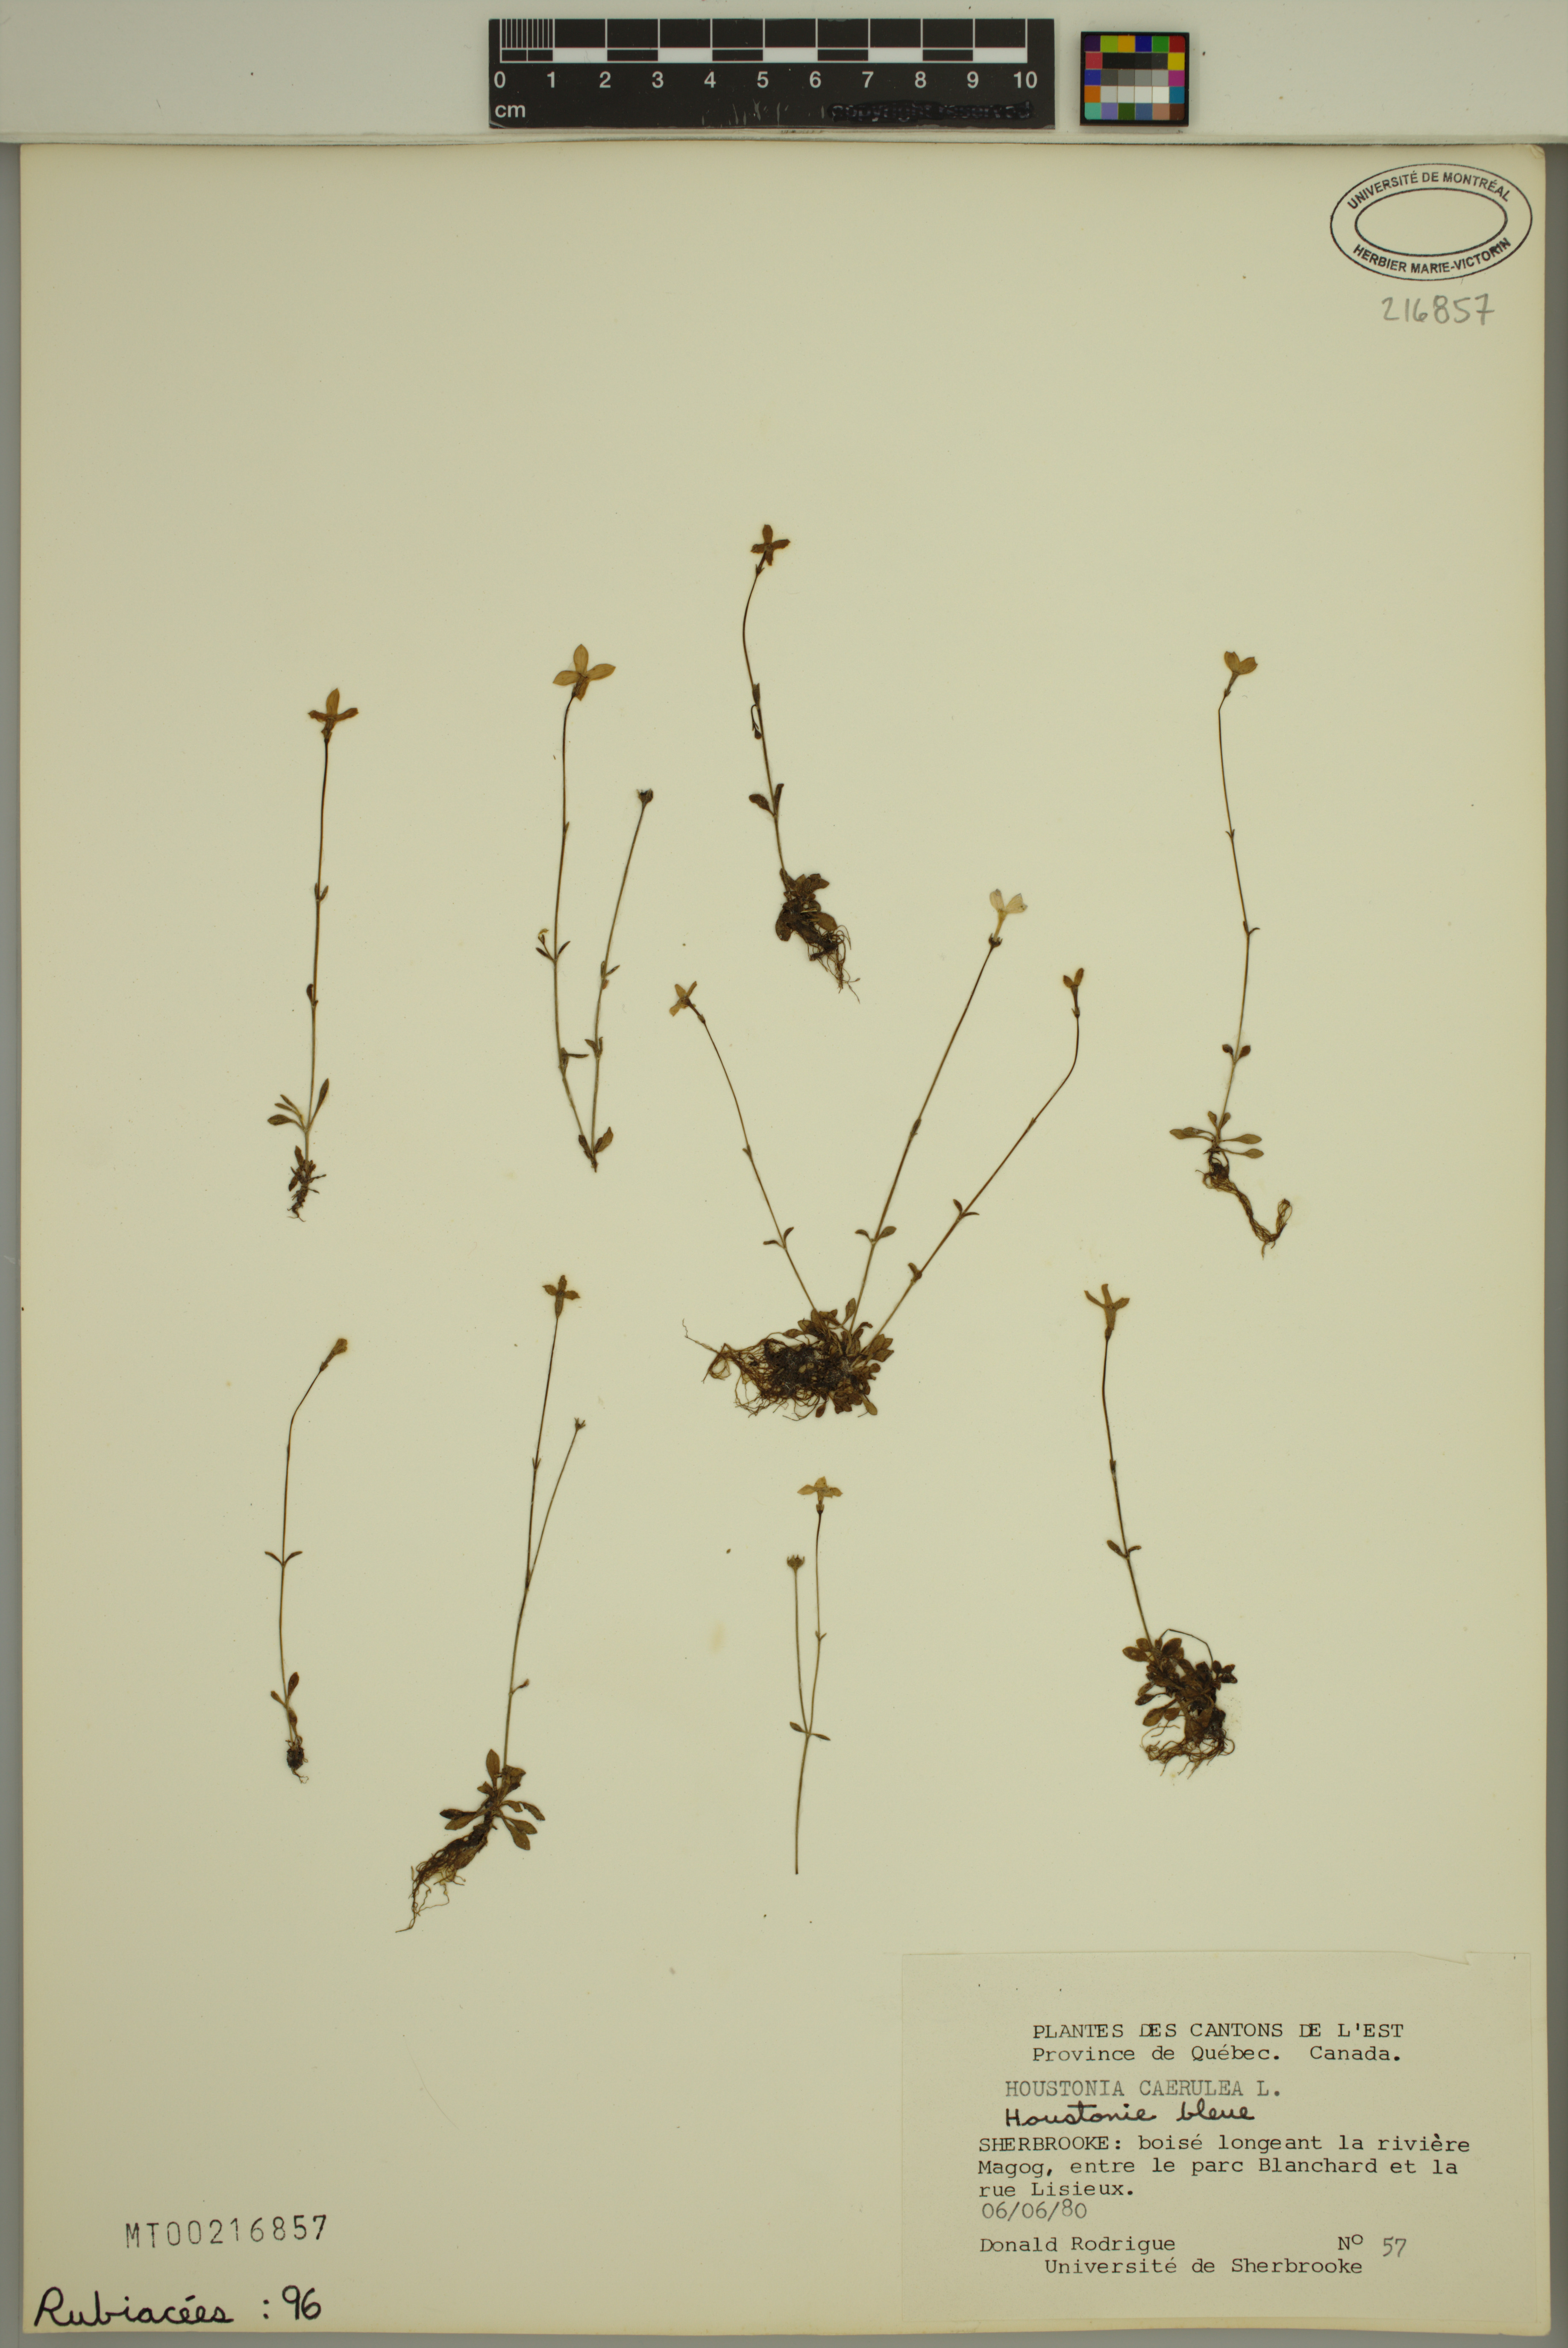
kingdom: Plantae
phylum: Tracheophyta
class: Magnoliopsida
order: Gentianales
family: Rubiaceae
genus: Houstonia
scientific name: Houstonia caerulea
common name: Bluets
